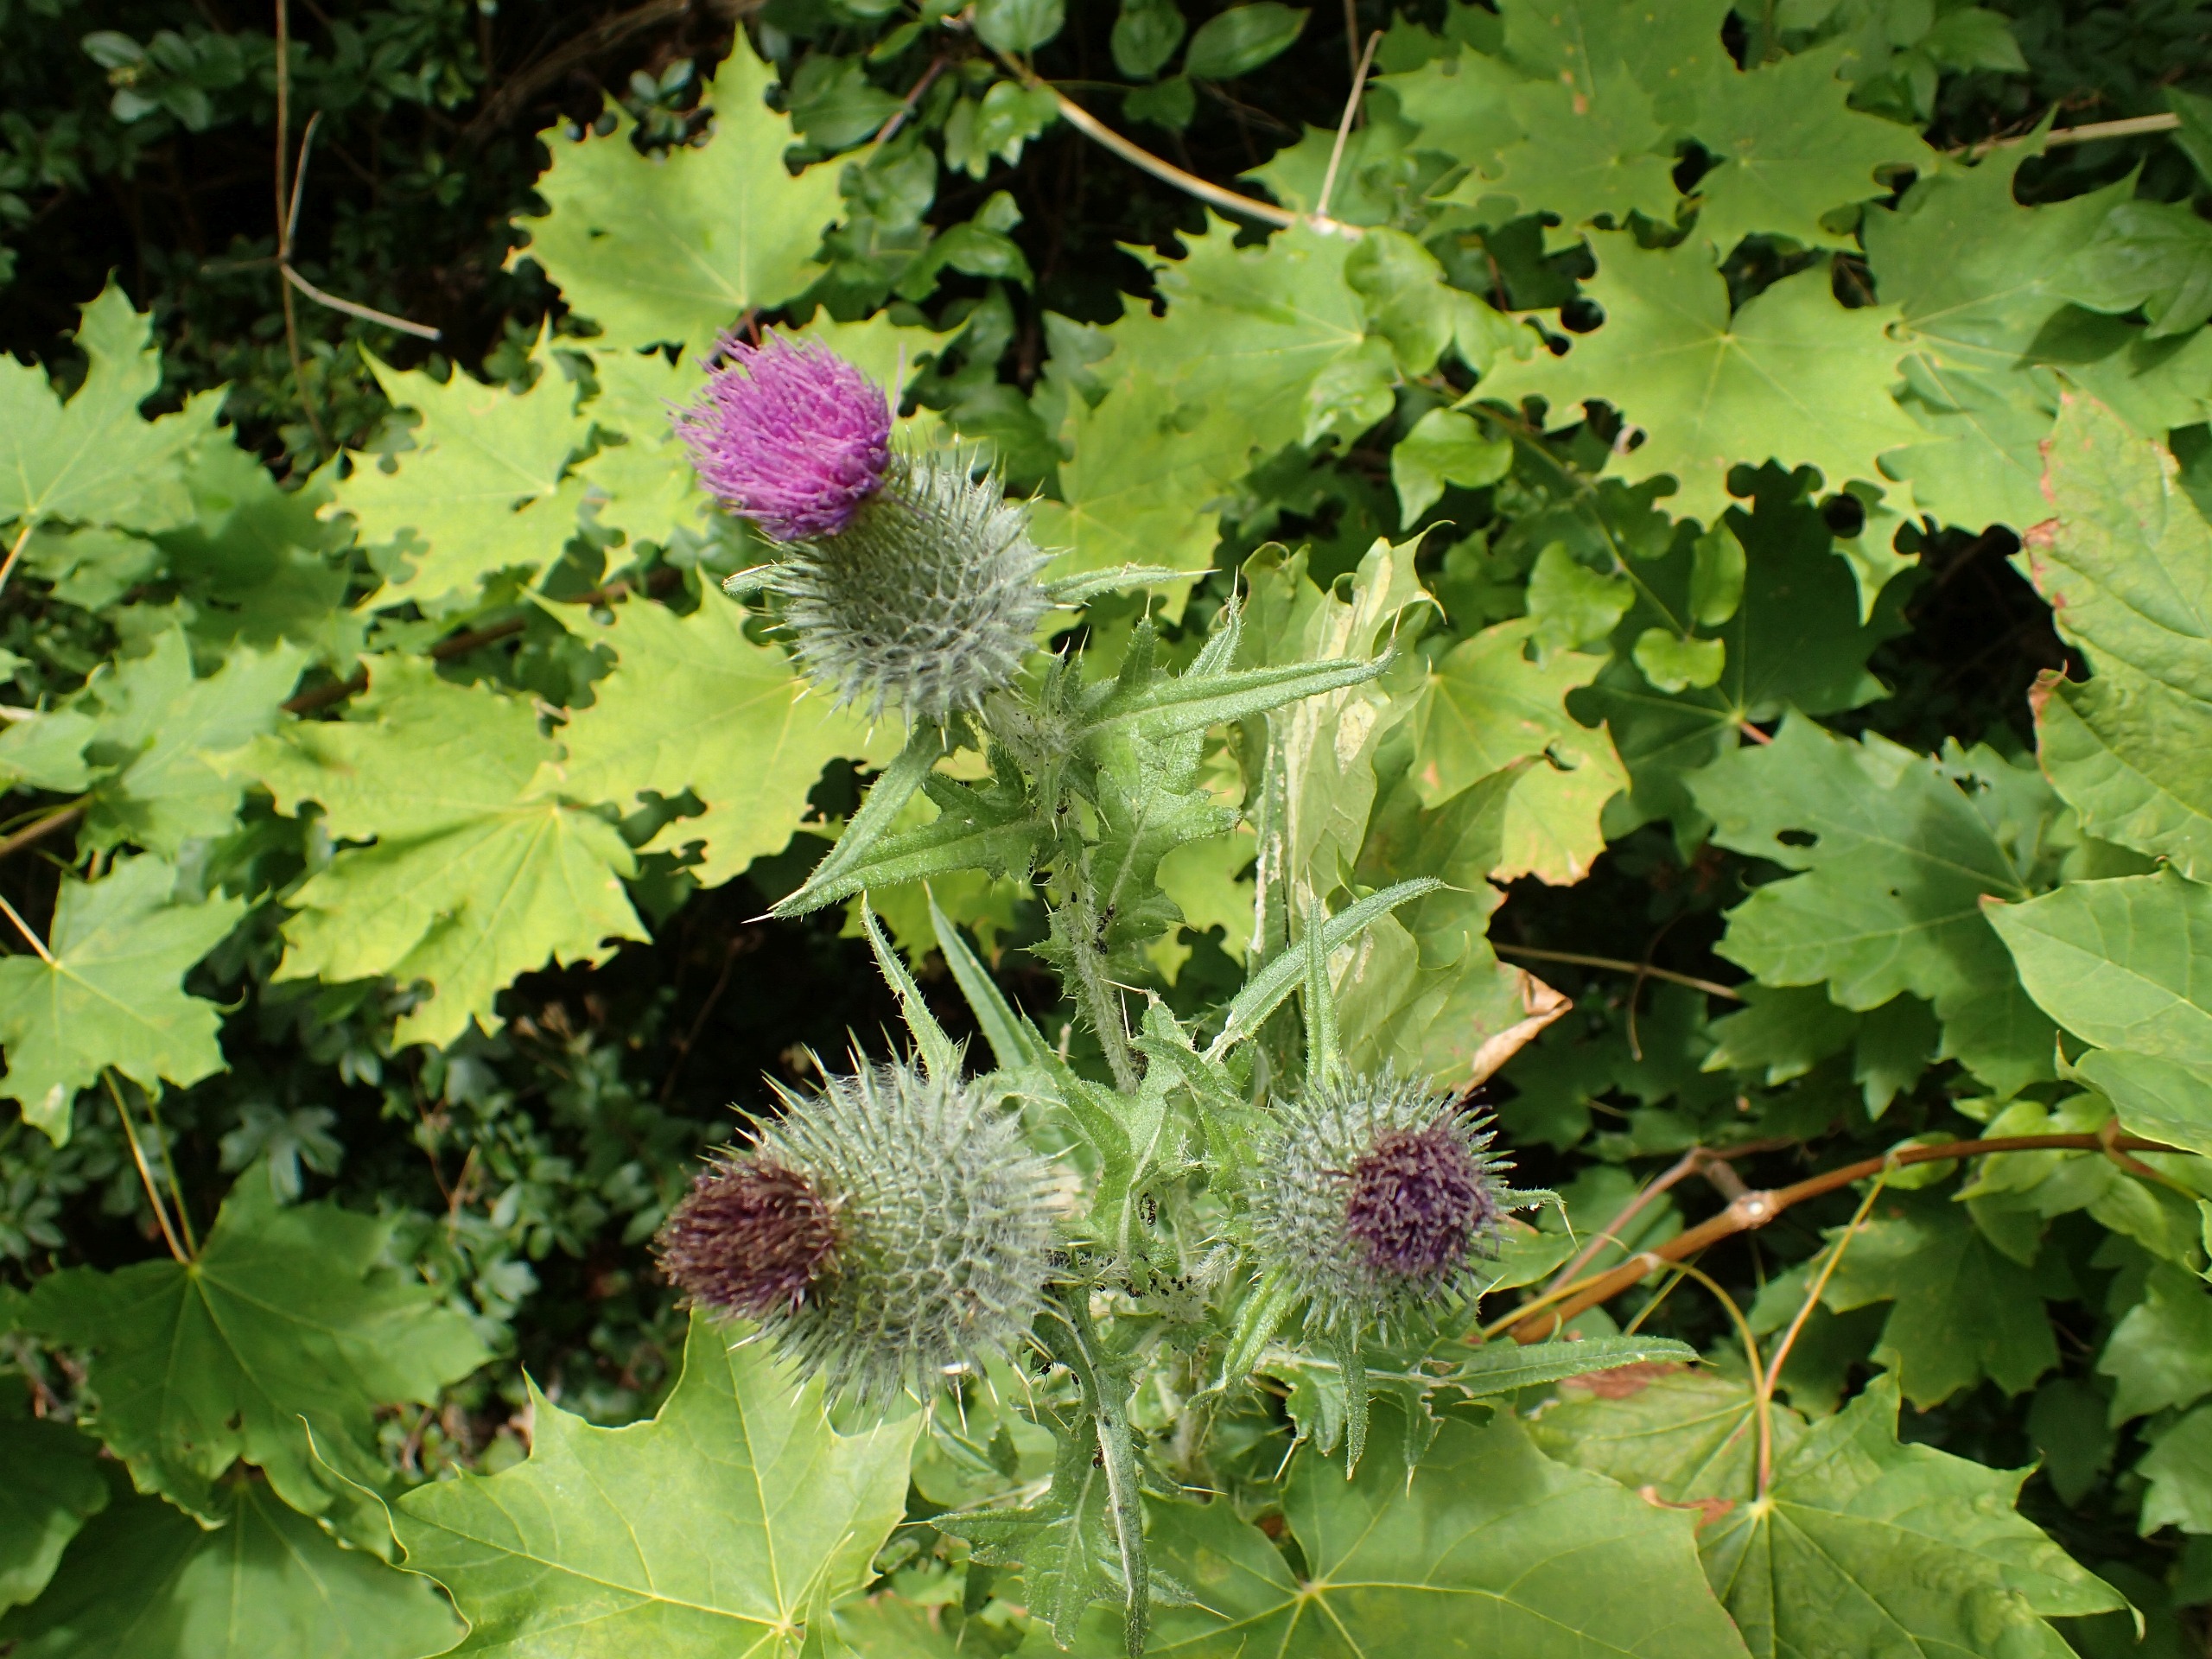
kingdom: Plantae
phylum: Tracheophyta
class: Magnoliopsida
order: Asterales
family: Asteraceae
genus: Cirsium
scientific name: Cirsium vulgare
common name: Horse-tidsel
